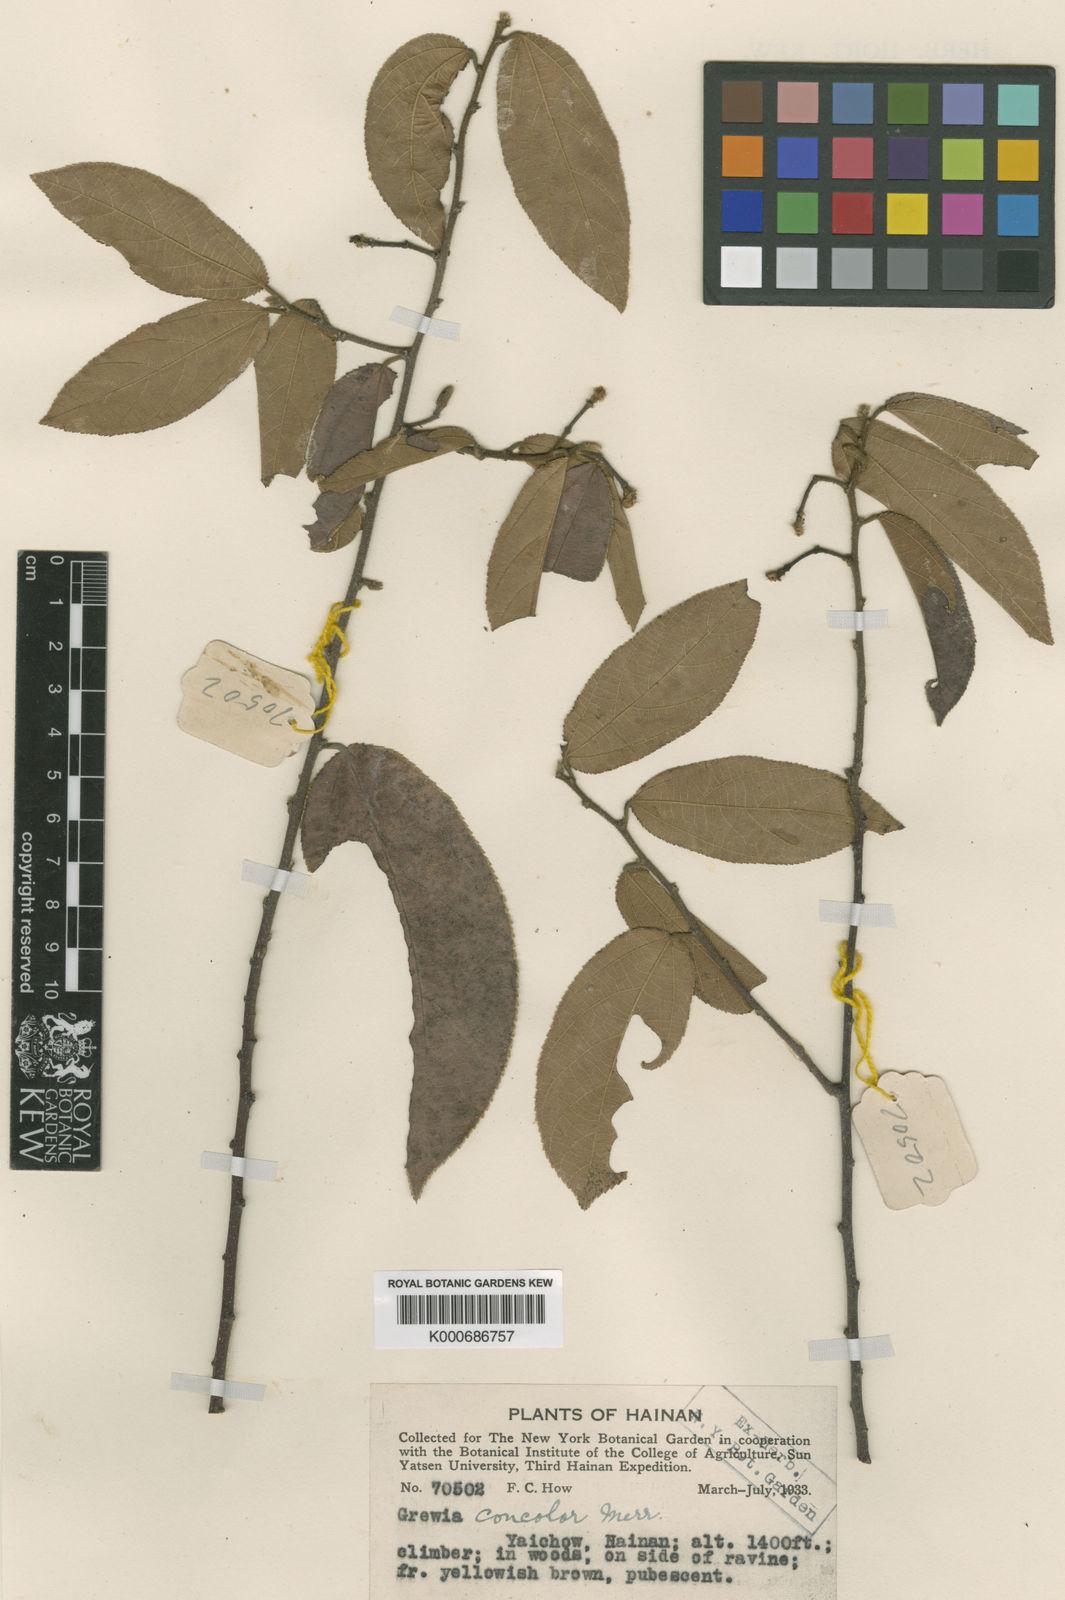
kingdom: Plantae
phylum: Tracheophyta
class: Magnoliopsida
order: Malvales
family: Malvaceae
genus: Grewia
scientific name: Grewia concolor
